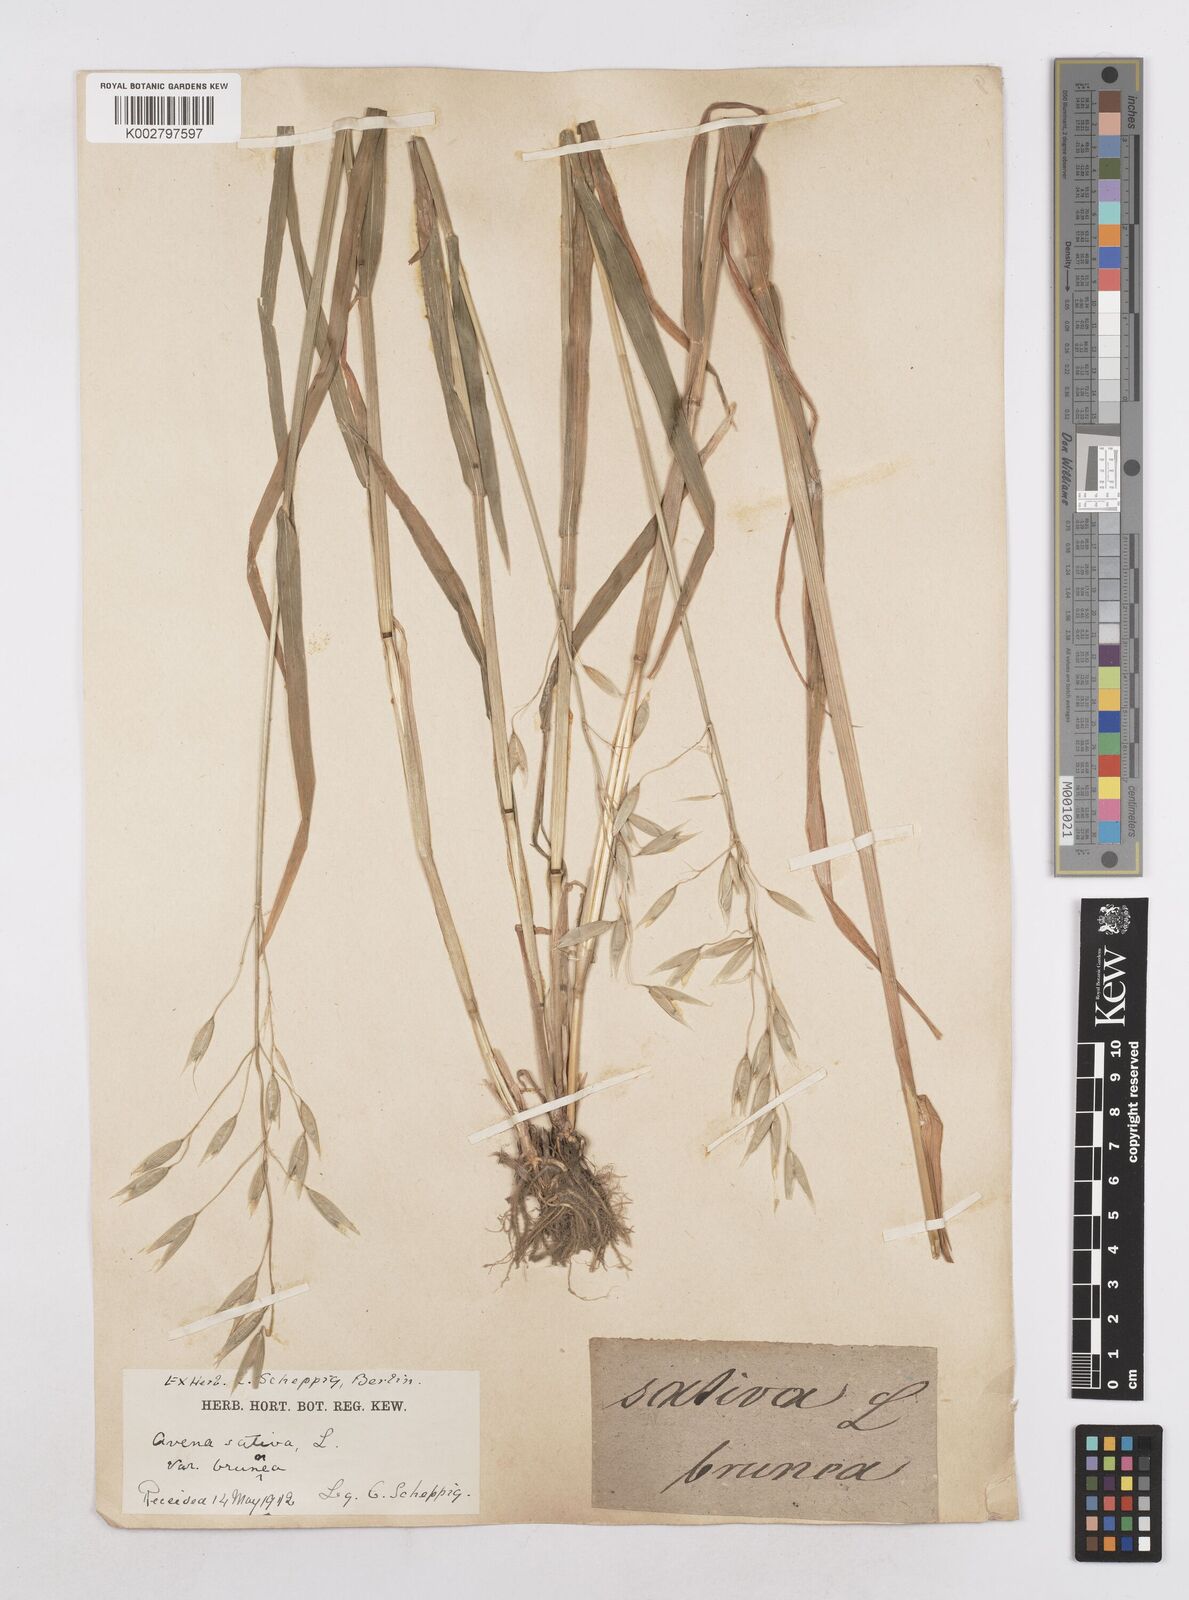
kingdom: Plantae
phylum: Tracheophyta
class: Liliopsida
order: Poales
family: Poaceae
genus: Avena
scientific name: Avena sativa
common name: Oat
